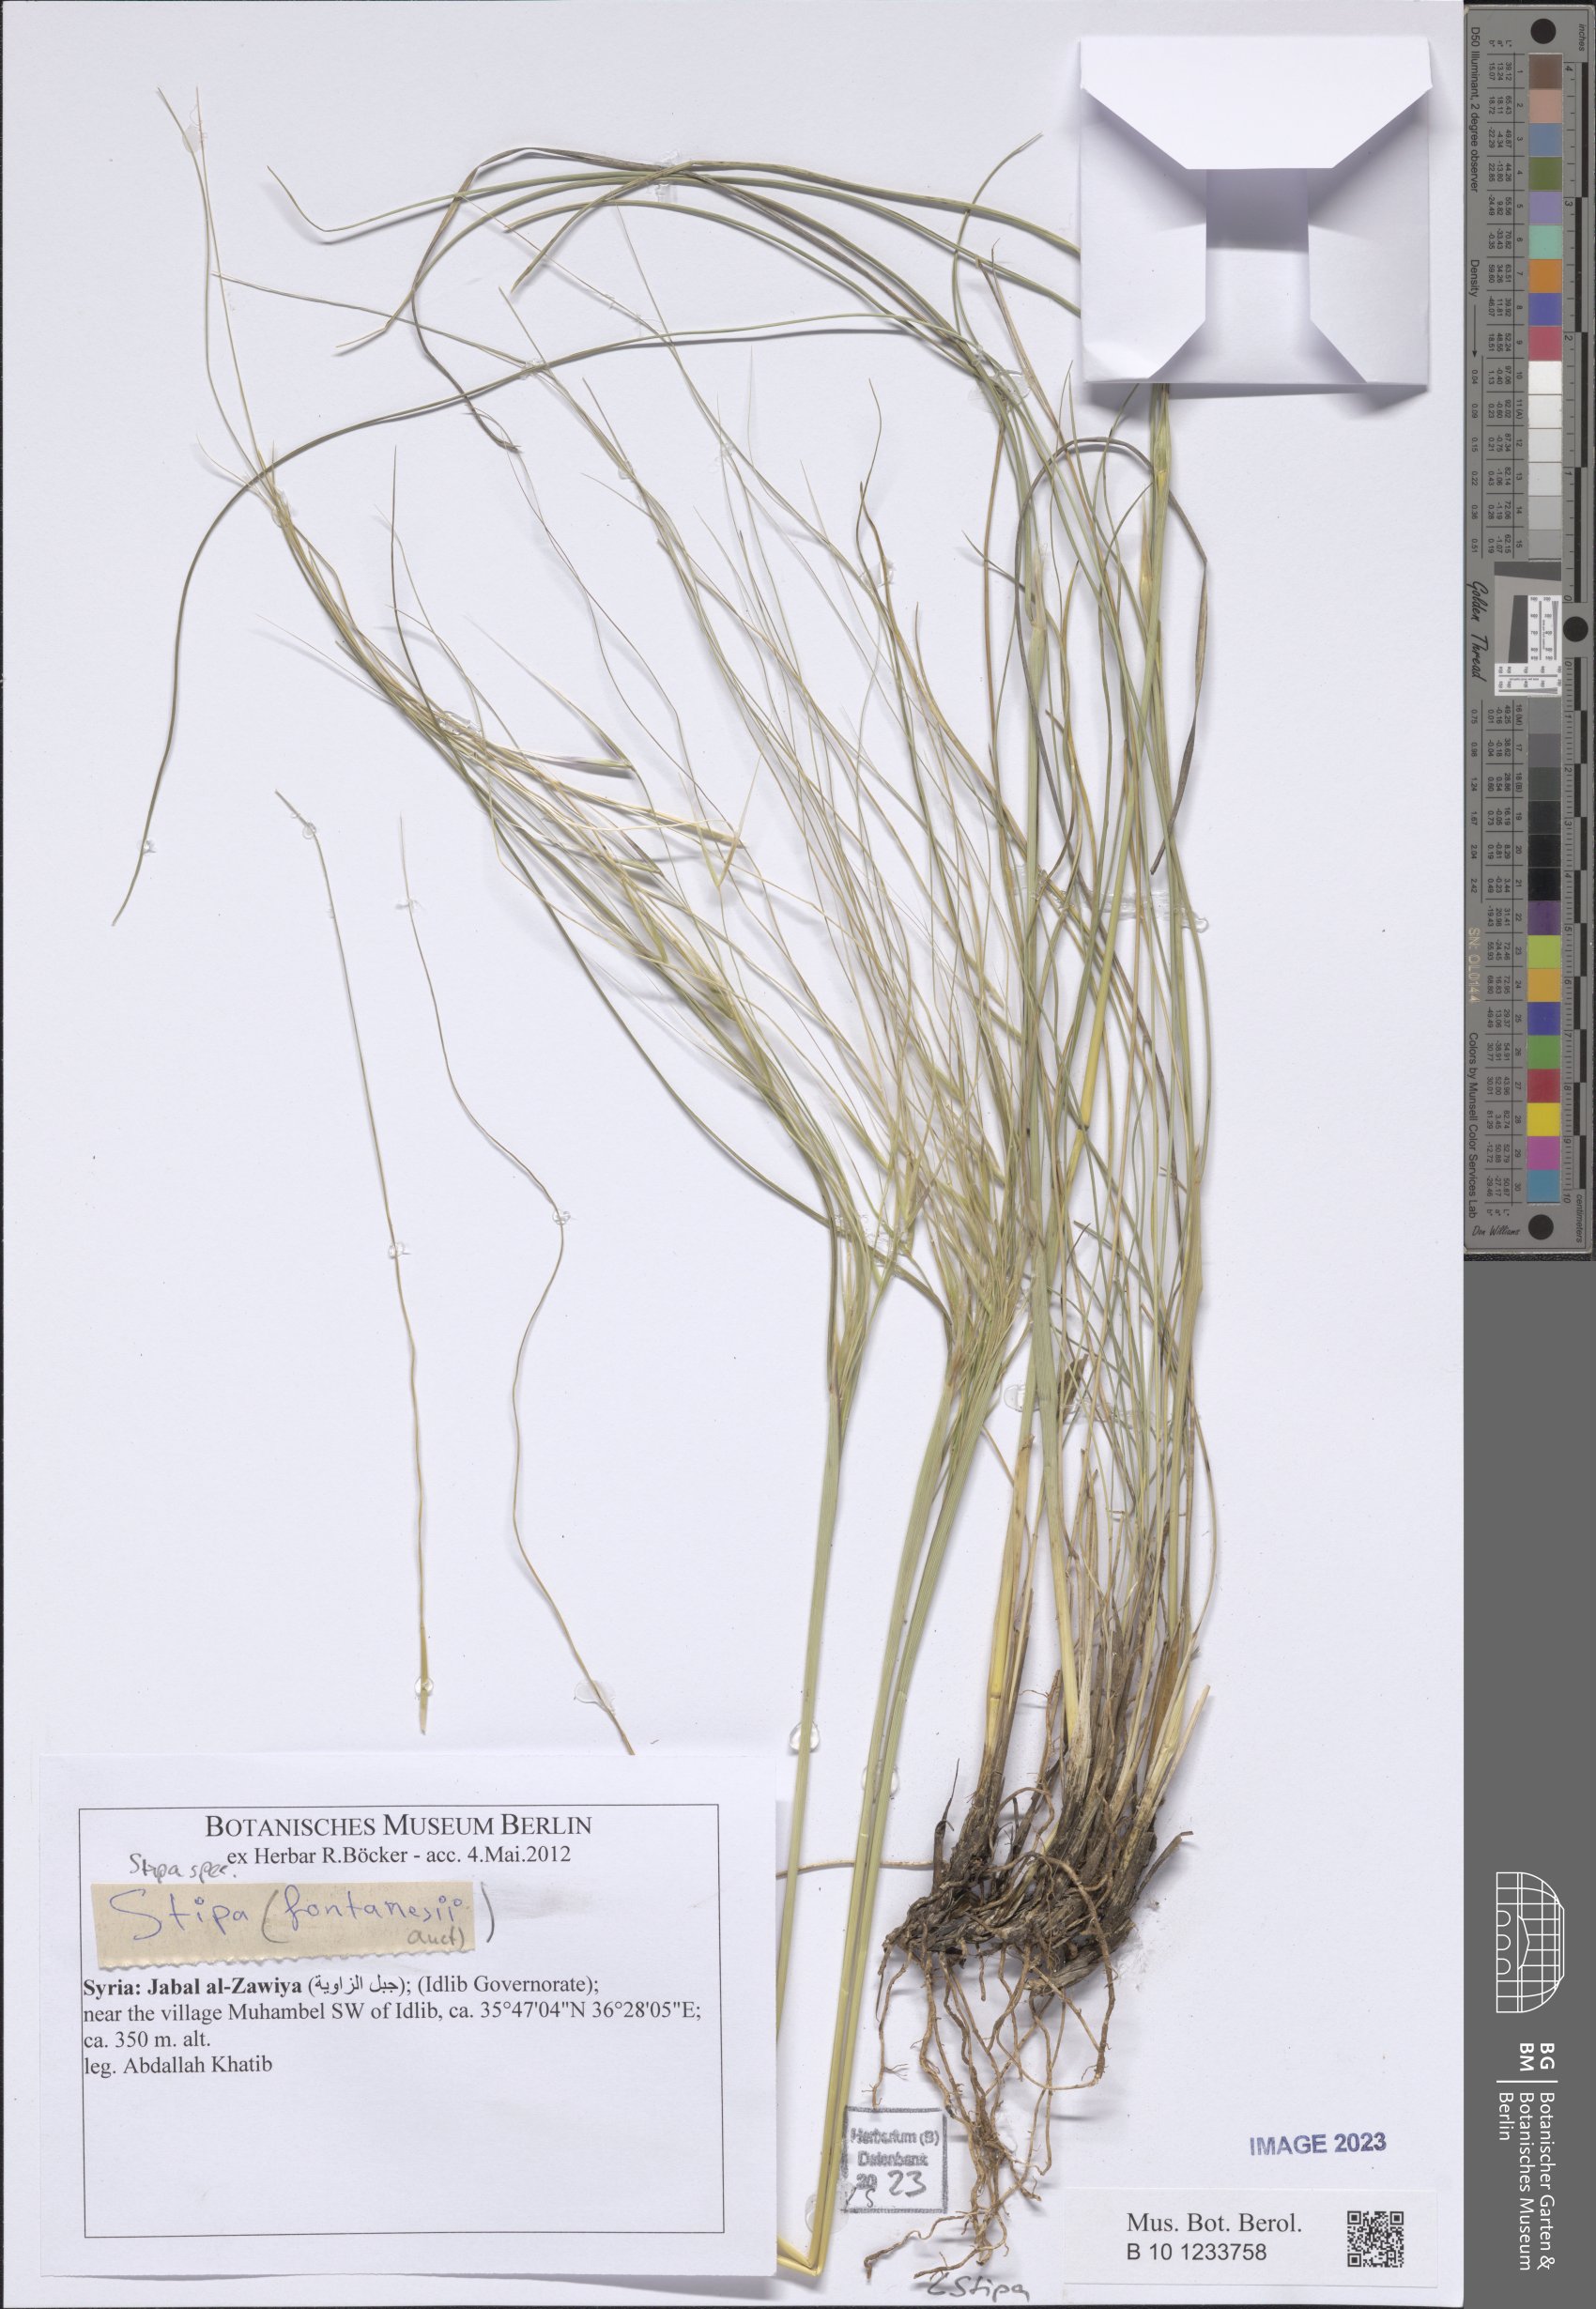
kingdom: Plantae
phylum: Tracheophyta
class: Liliopsida
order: Poales
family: Poaceae
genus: Stipa
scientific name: Stipa
